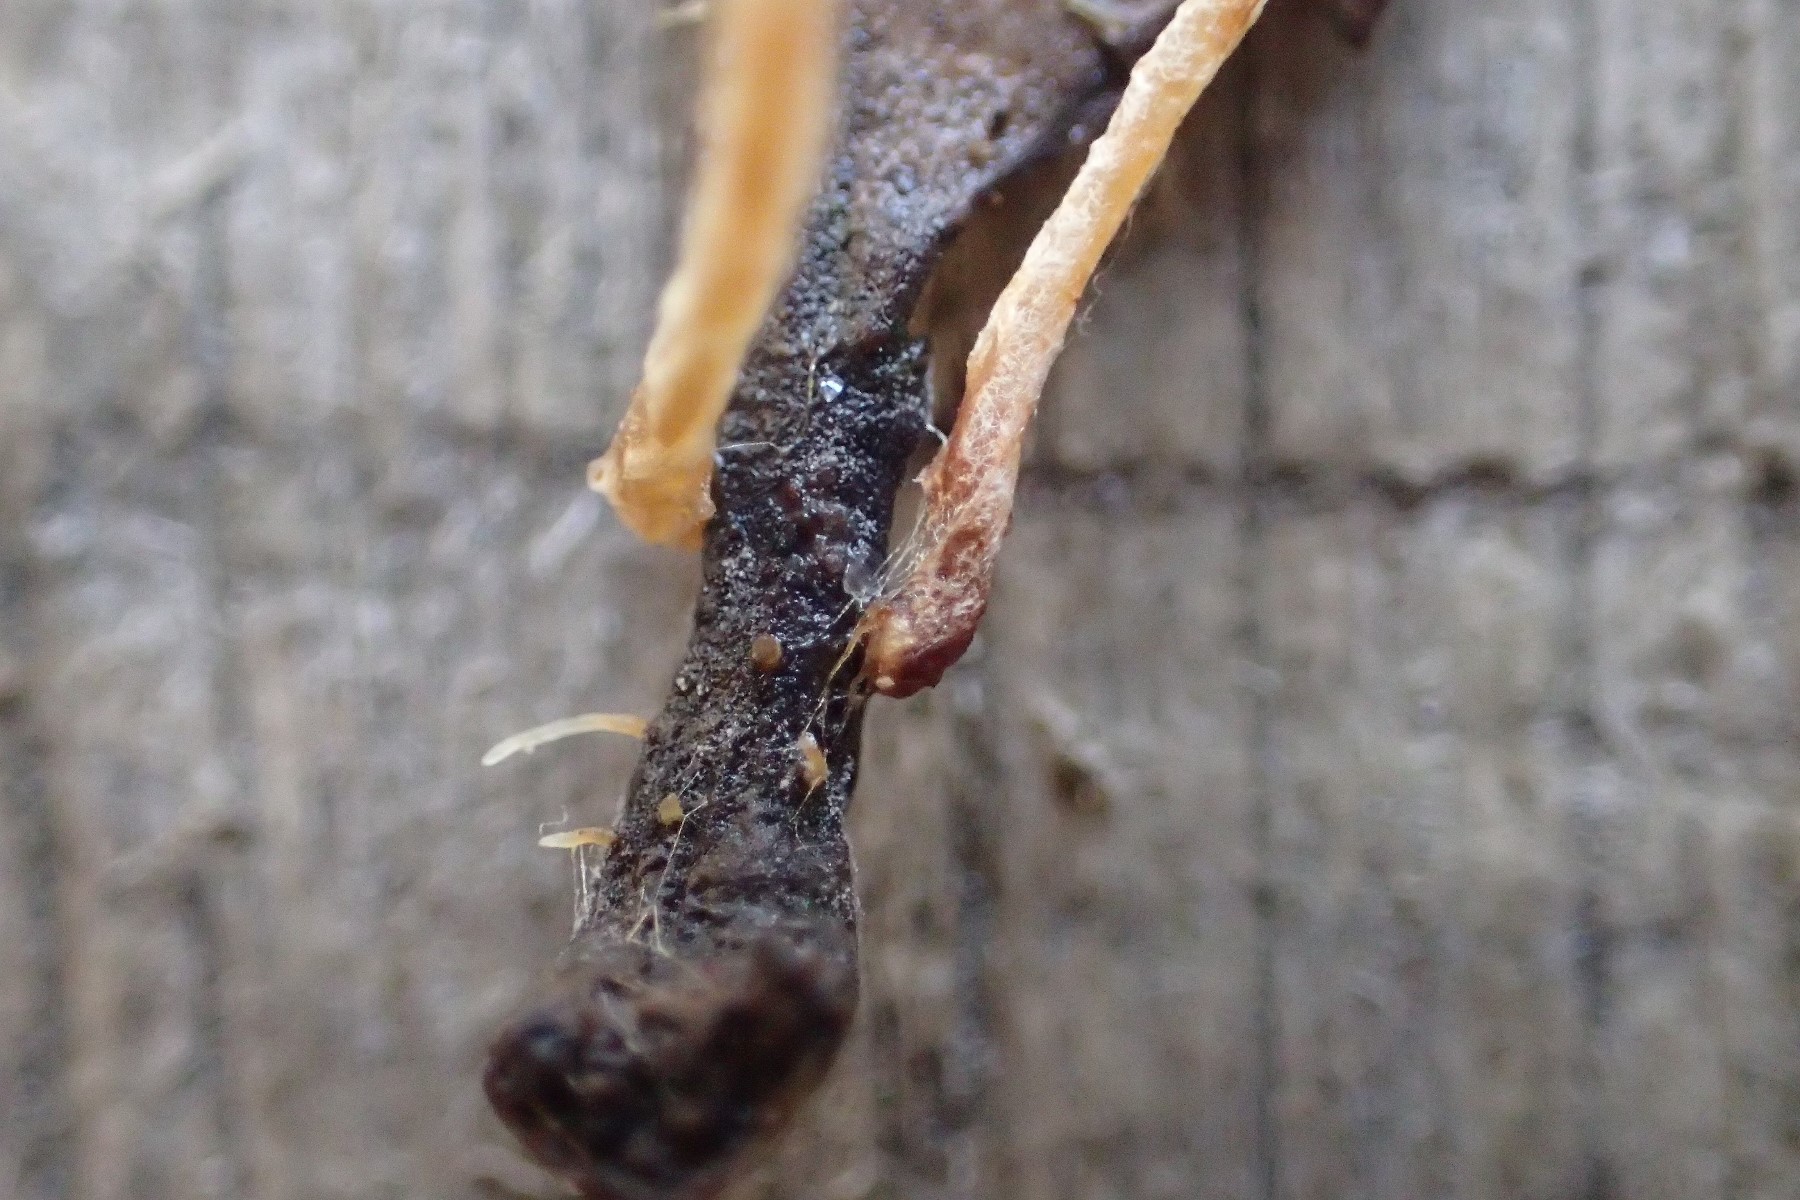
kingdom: Fungi
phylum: Basidiomycota
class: Agaricomycetes
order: Agaricales
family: Typhulaceae
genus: Typhula
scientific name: Typhula juncea
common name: trådagtig rørkølle
